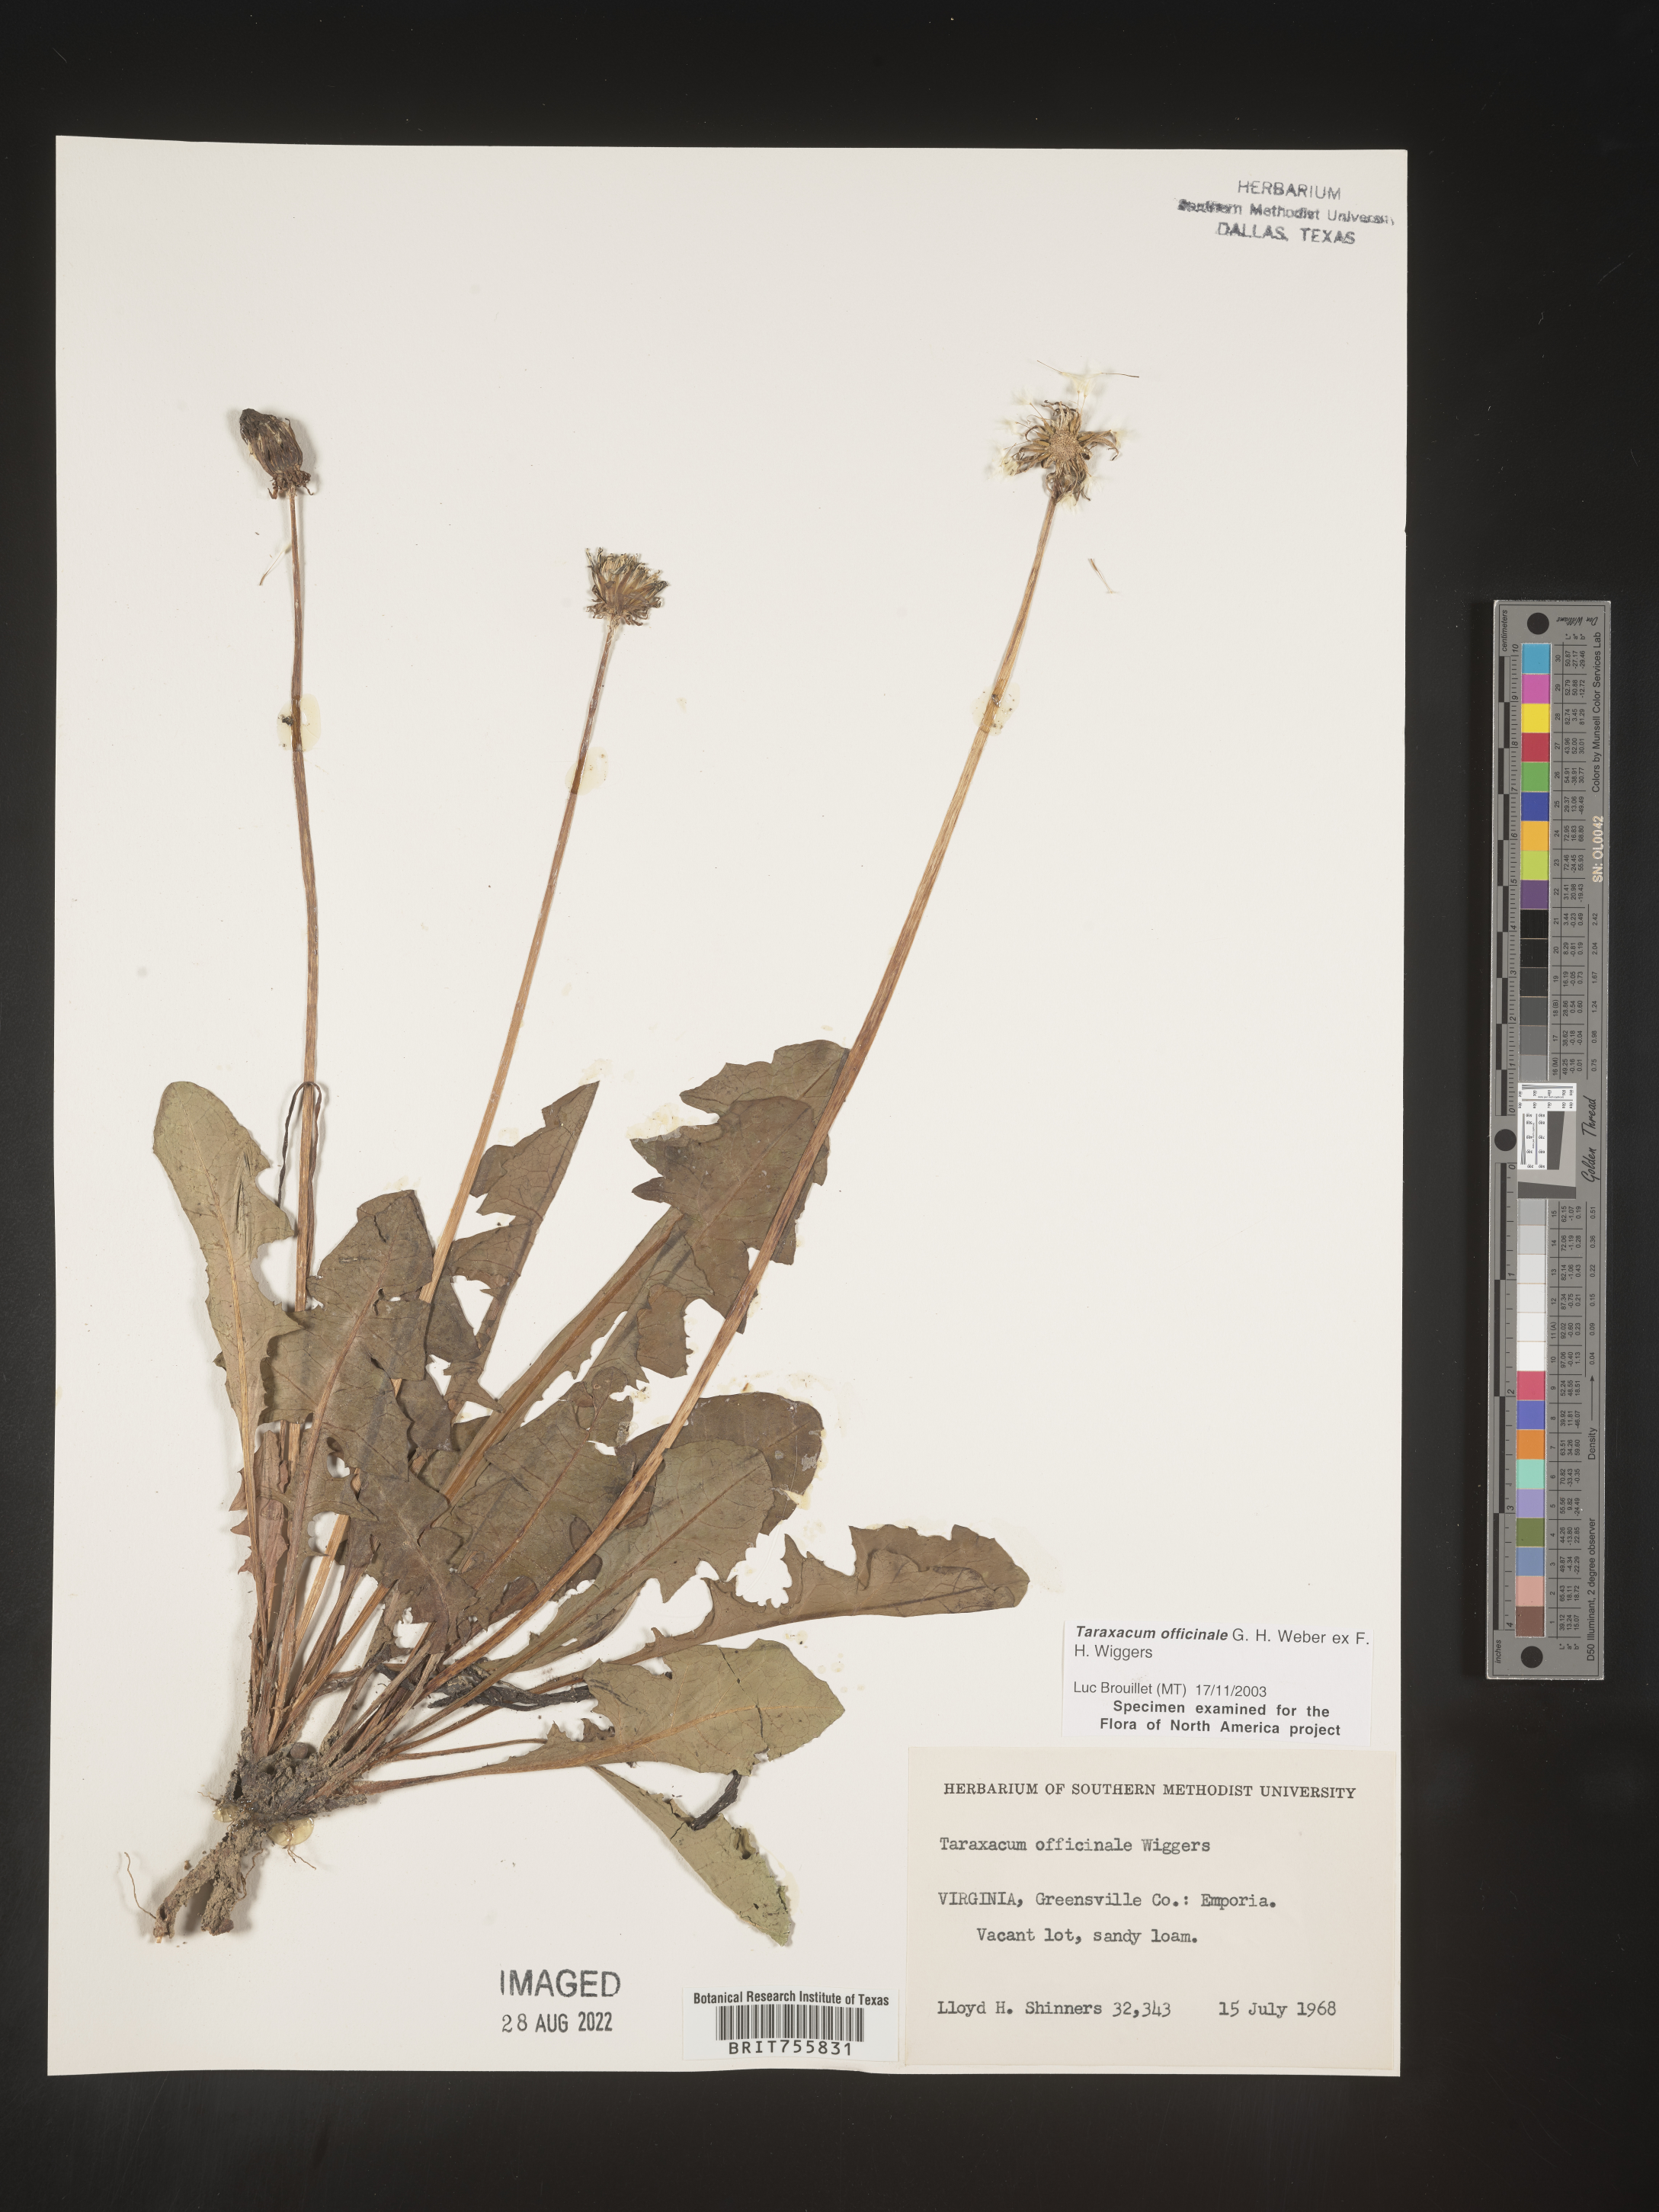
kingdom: Plantae
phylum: Tracheophyta
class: Magnoliopsida
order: Asterales
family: Asteraceae
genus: Taraxacum
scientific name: Taraxacum officinale
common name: Common dandelion
